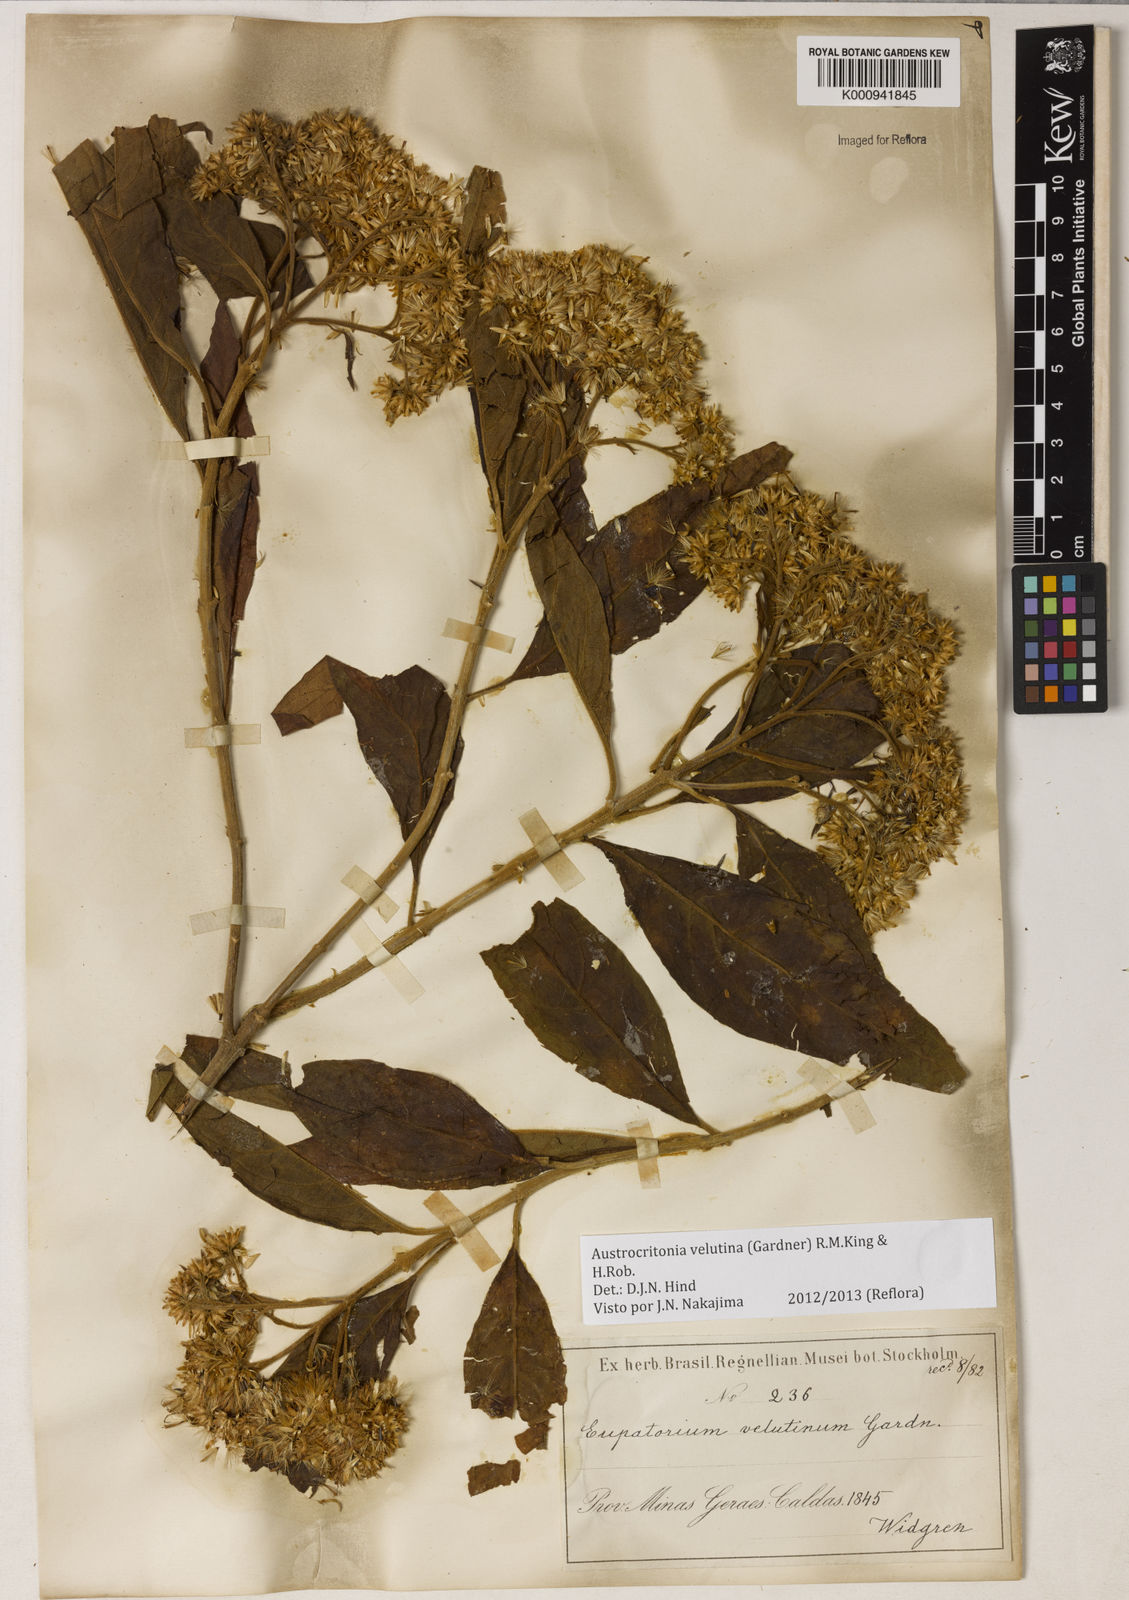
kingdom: Plantae
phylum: Tracheophyta
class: Magnoliopsida
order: Asterales
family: Asteraceae
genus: Austrocritonia
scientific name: Austrocritonia velutina
